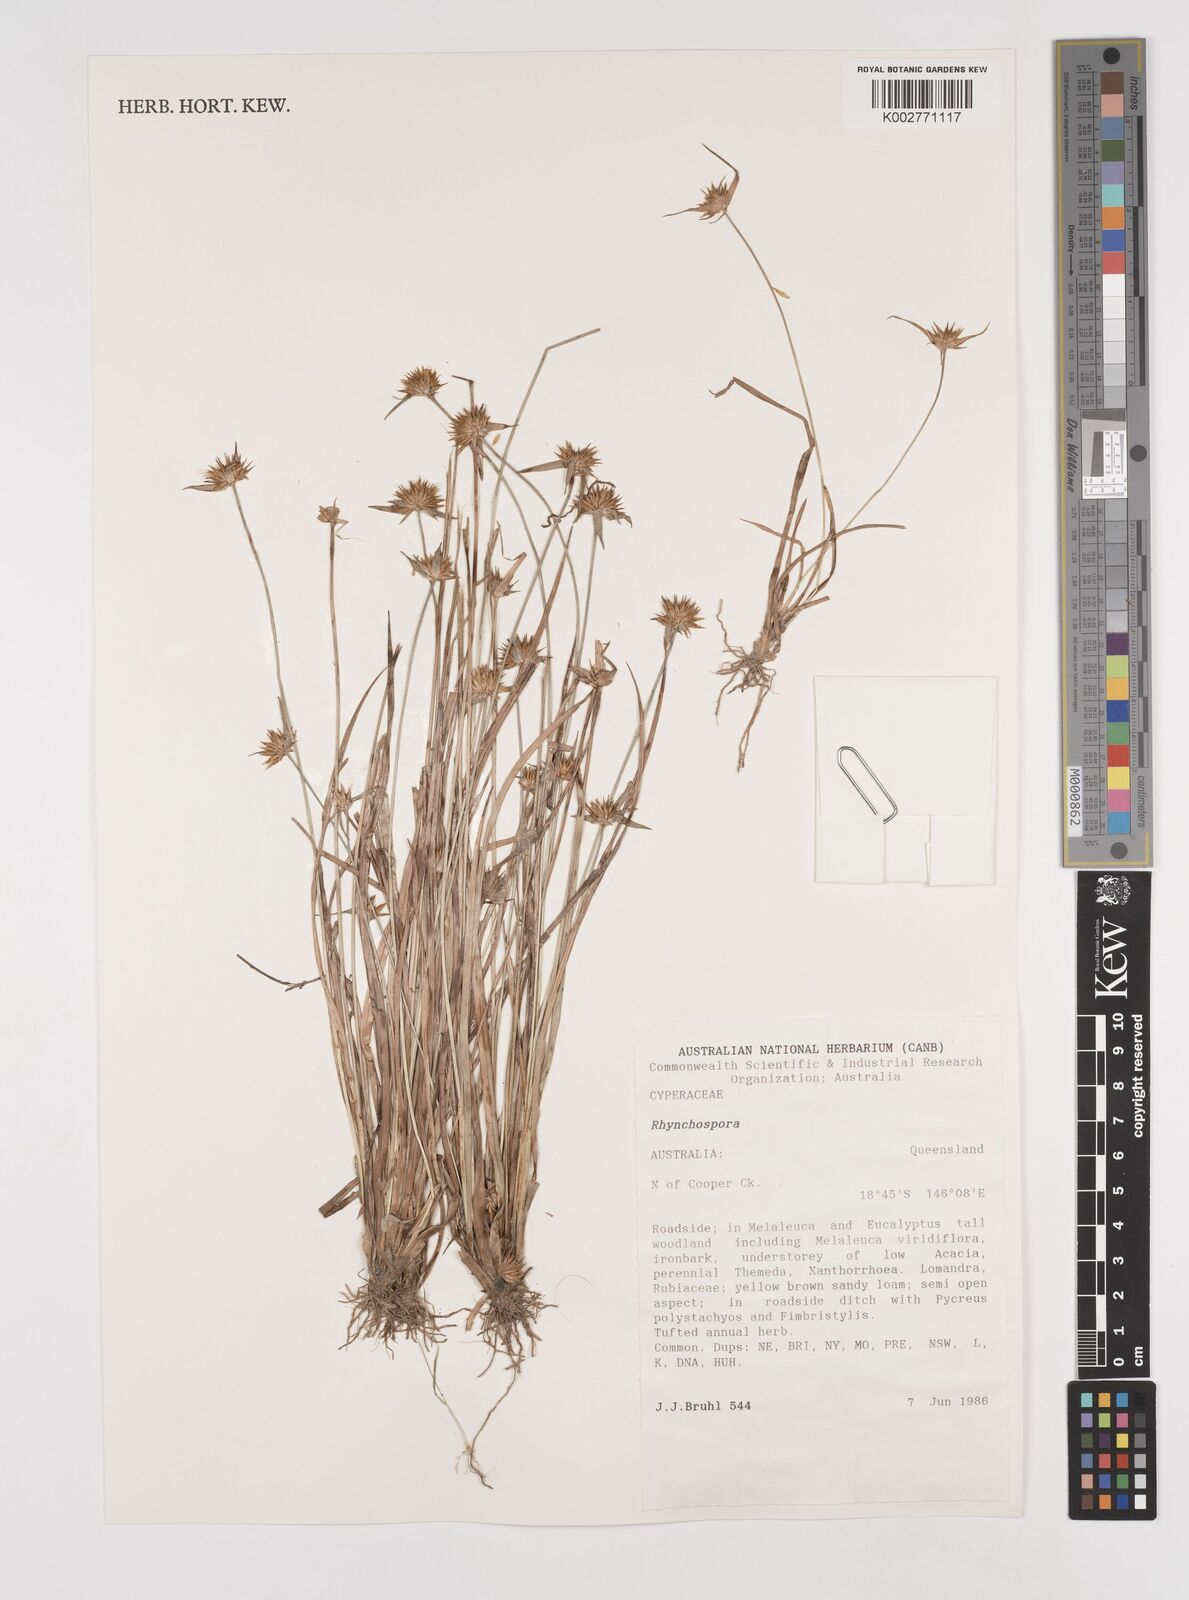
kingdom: Plantae
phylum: Tracheophyta
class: Liliopsida
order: Poales
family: Cyperaceae
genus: Rhynchospora
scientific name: Rhynchospora
